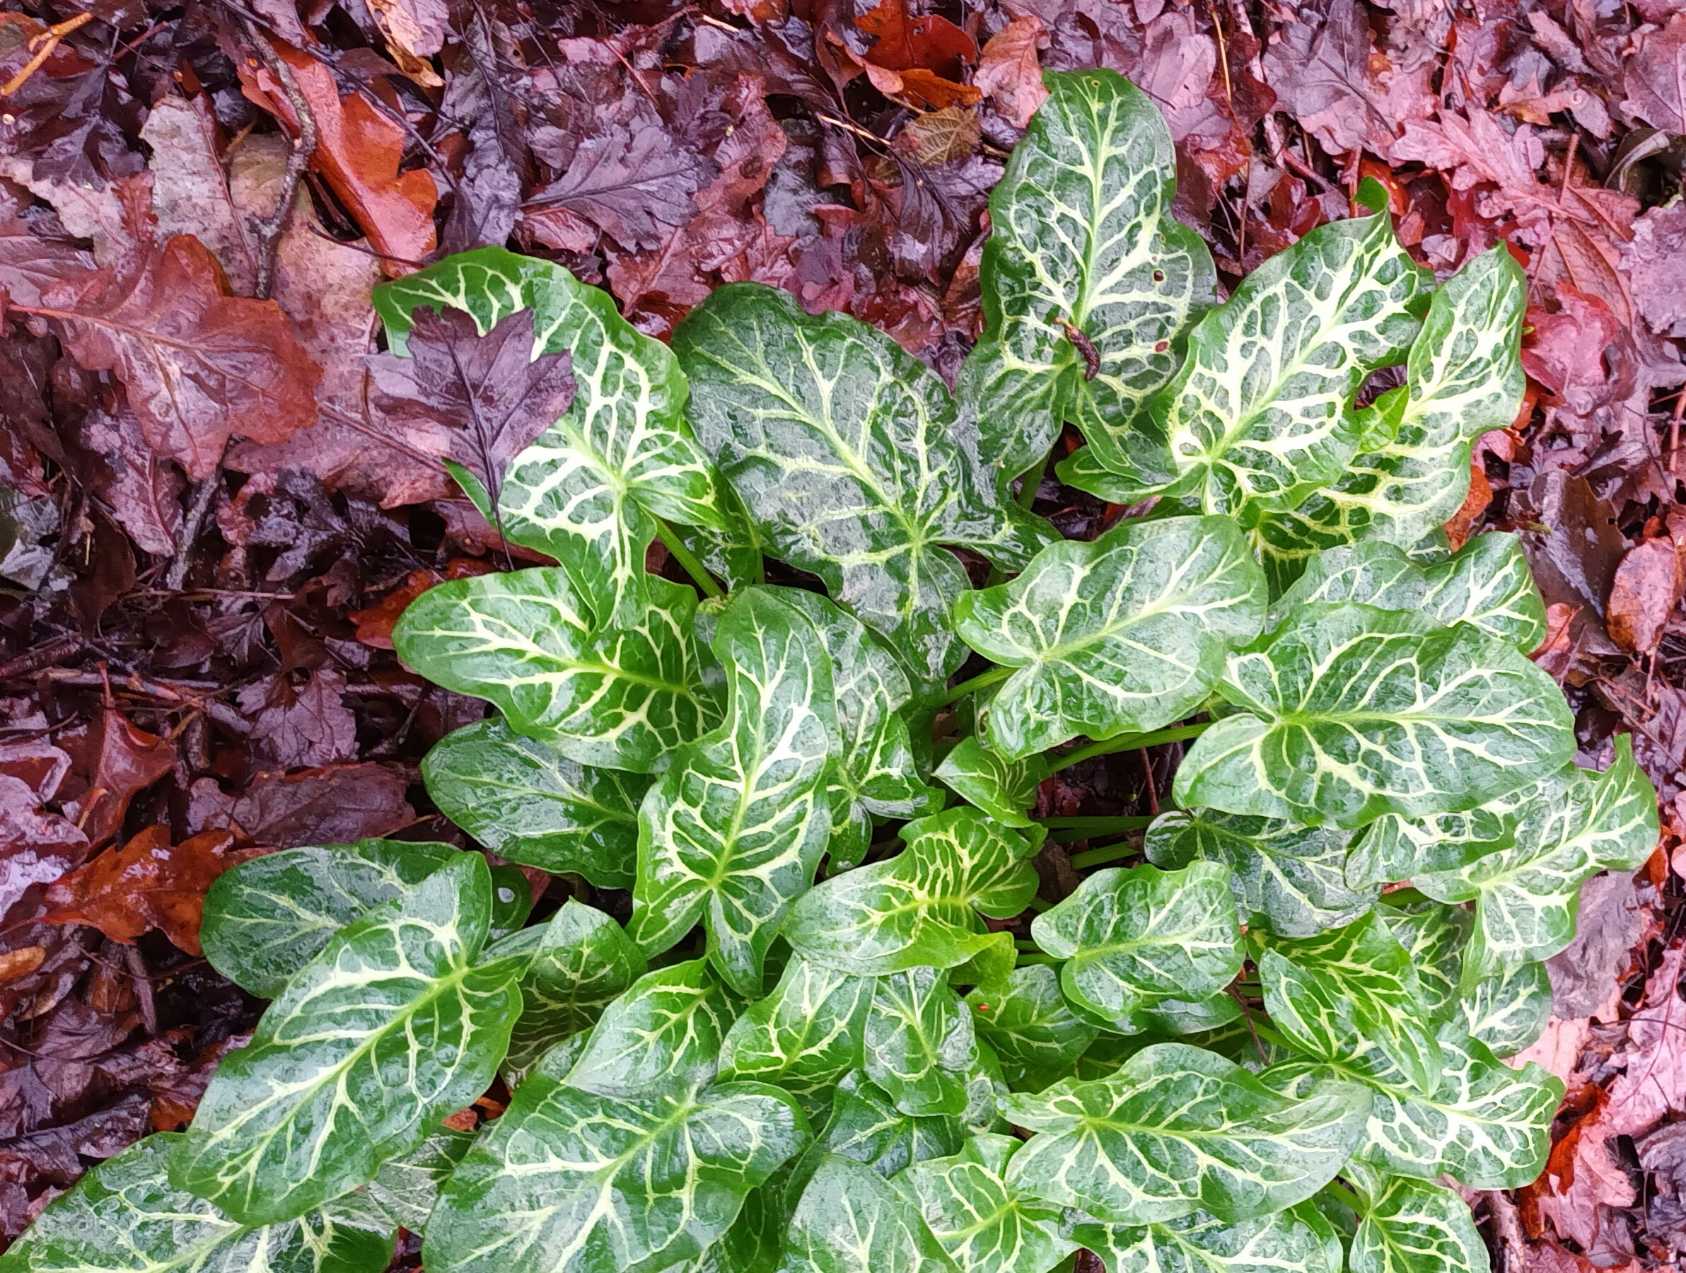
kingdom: Plantae
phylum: Tracheophyta
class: Liliopsida
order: Alismatales
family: Araceae
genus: Arum
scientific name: Arum italicum
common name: Italiensk arum
